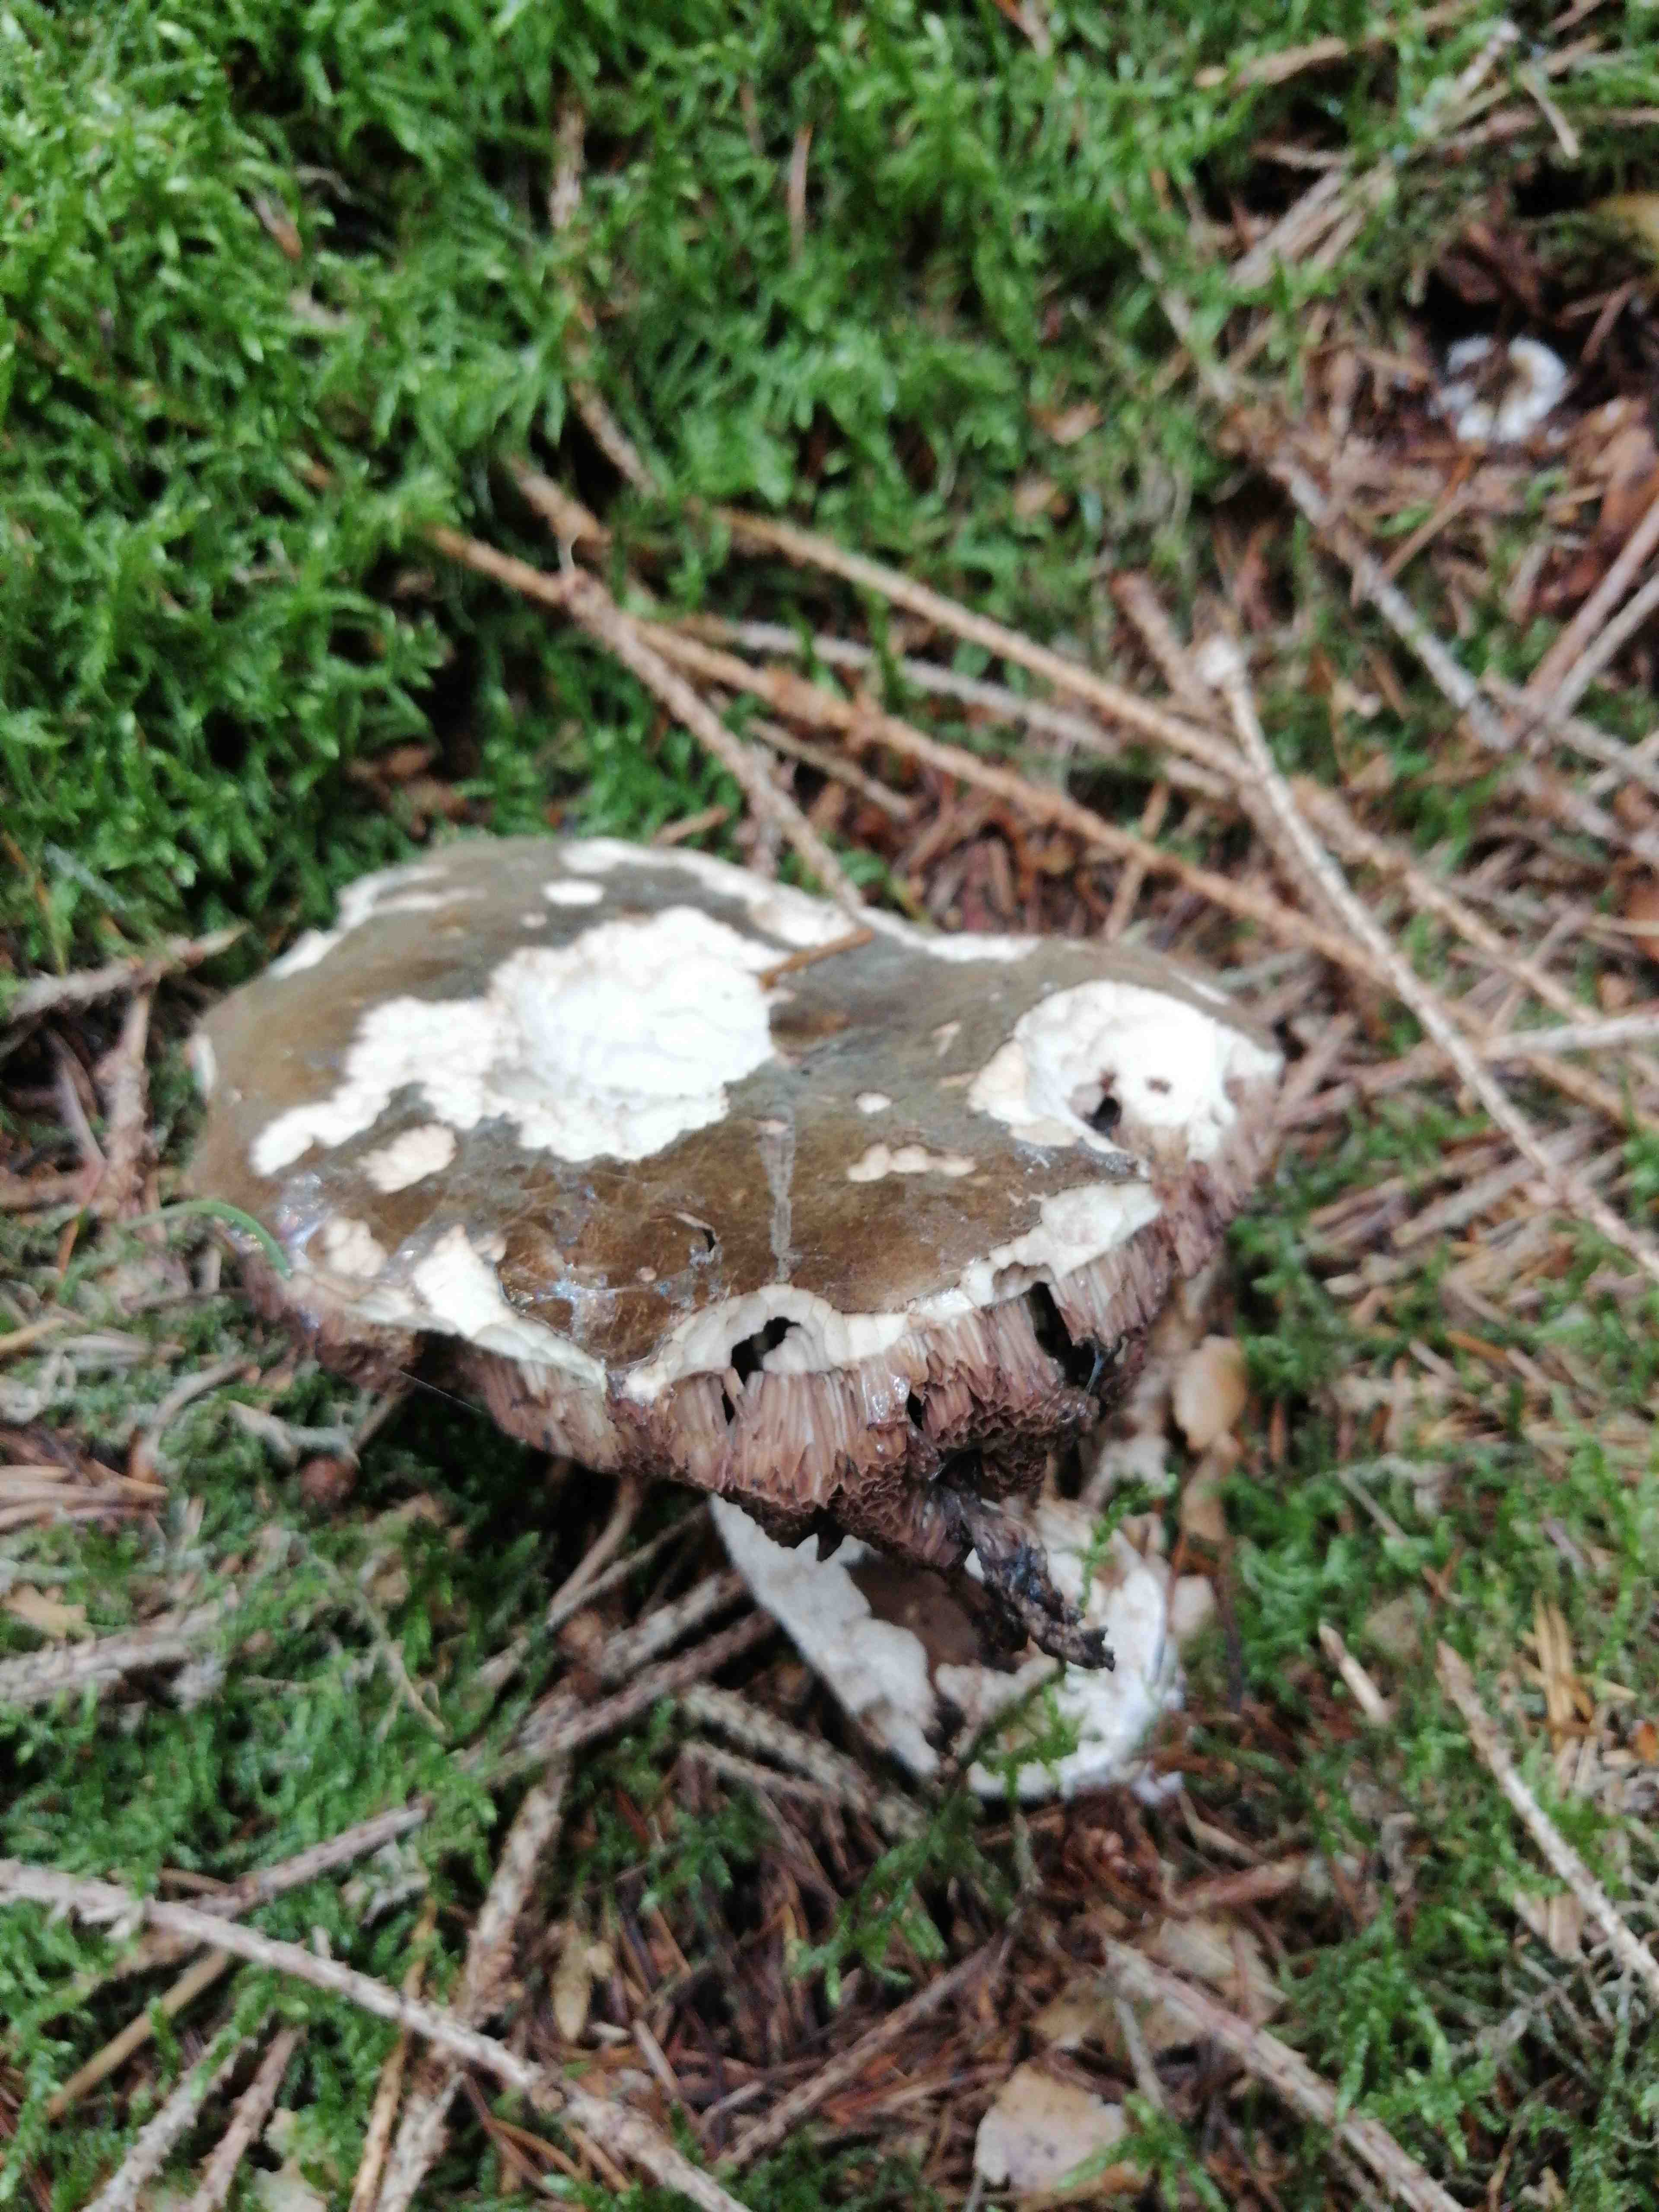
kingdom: Fungi
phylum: Basidiomycota
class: Agaricomycetes
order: Boletales
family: Boletaceae
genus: Porphyrellus
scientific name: Porphyrellus porphyrosporus
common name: sodrørhat
